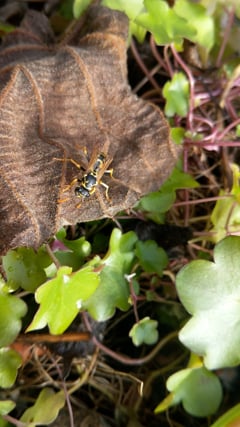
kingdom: Animalia
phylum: Arthropoda
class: Insecta
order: Hymenoptera
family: Eumenidae
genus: Polistes
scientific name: Polistes dominula
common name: Paper wasp
